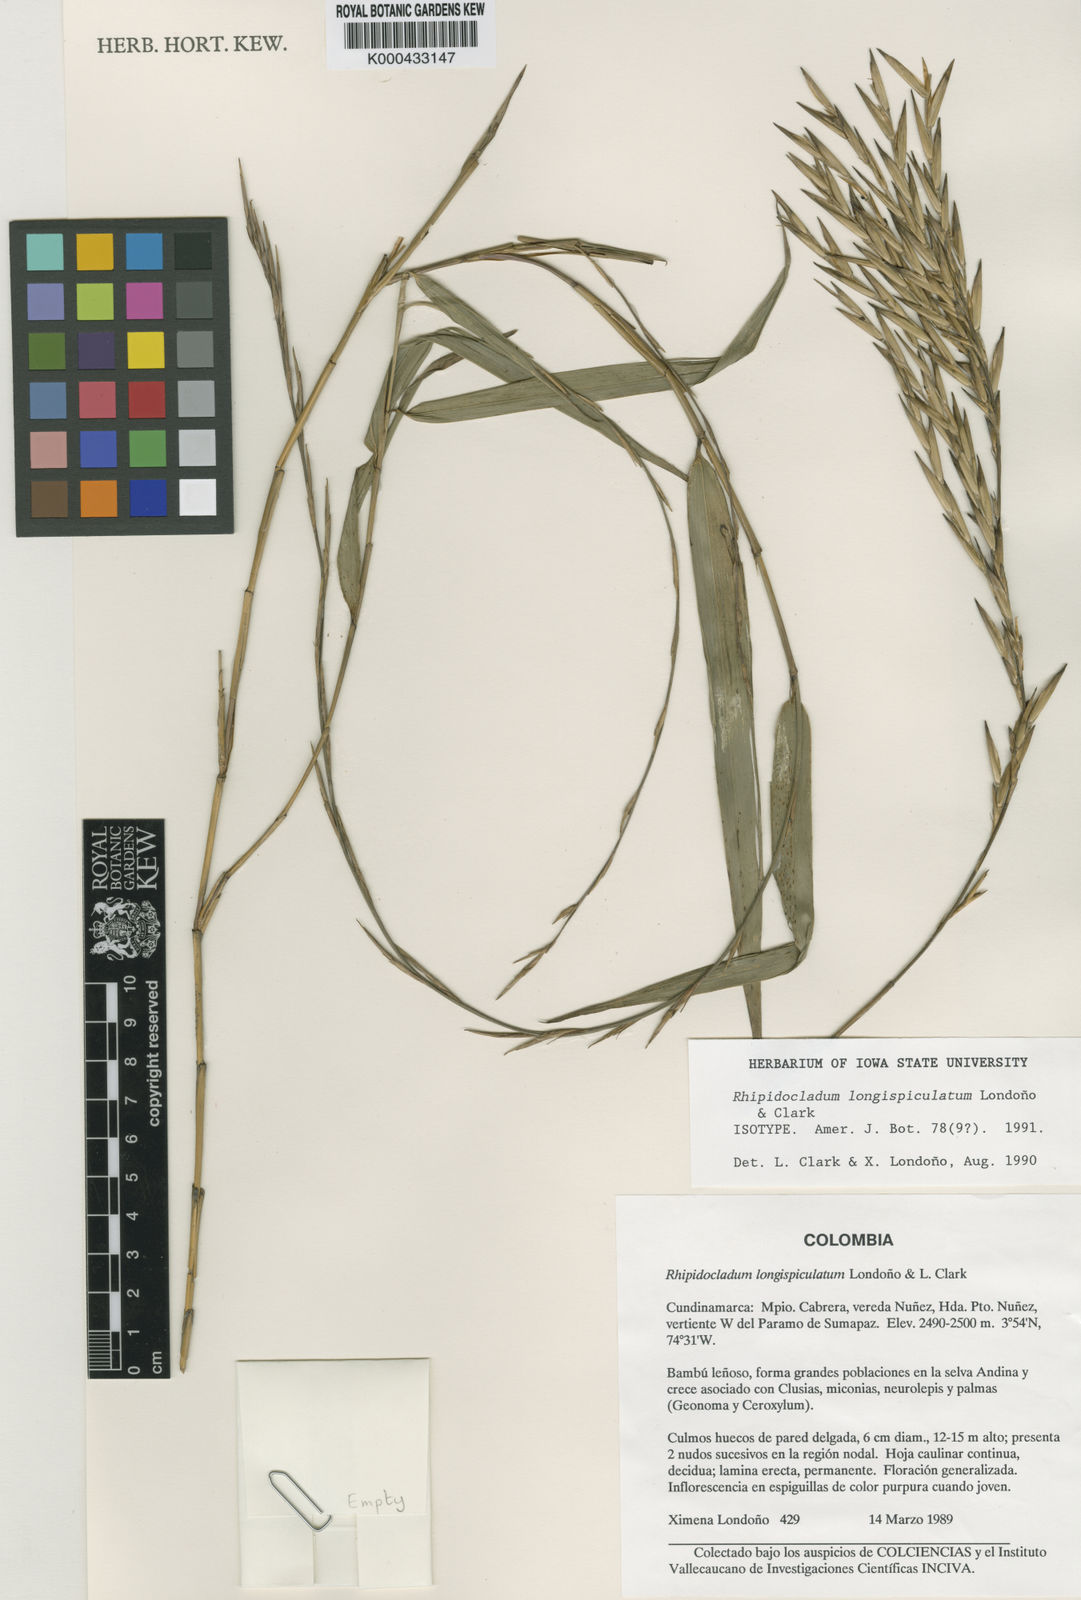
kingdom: Plantae
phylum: Tracheophyta
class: Liliopsida
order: Poales
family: Poaceae
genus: Didymogonyx
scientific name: Didymogonyx longispiculatum
